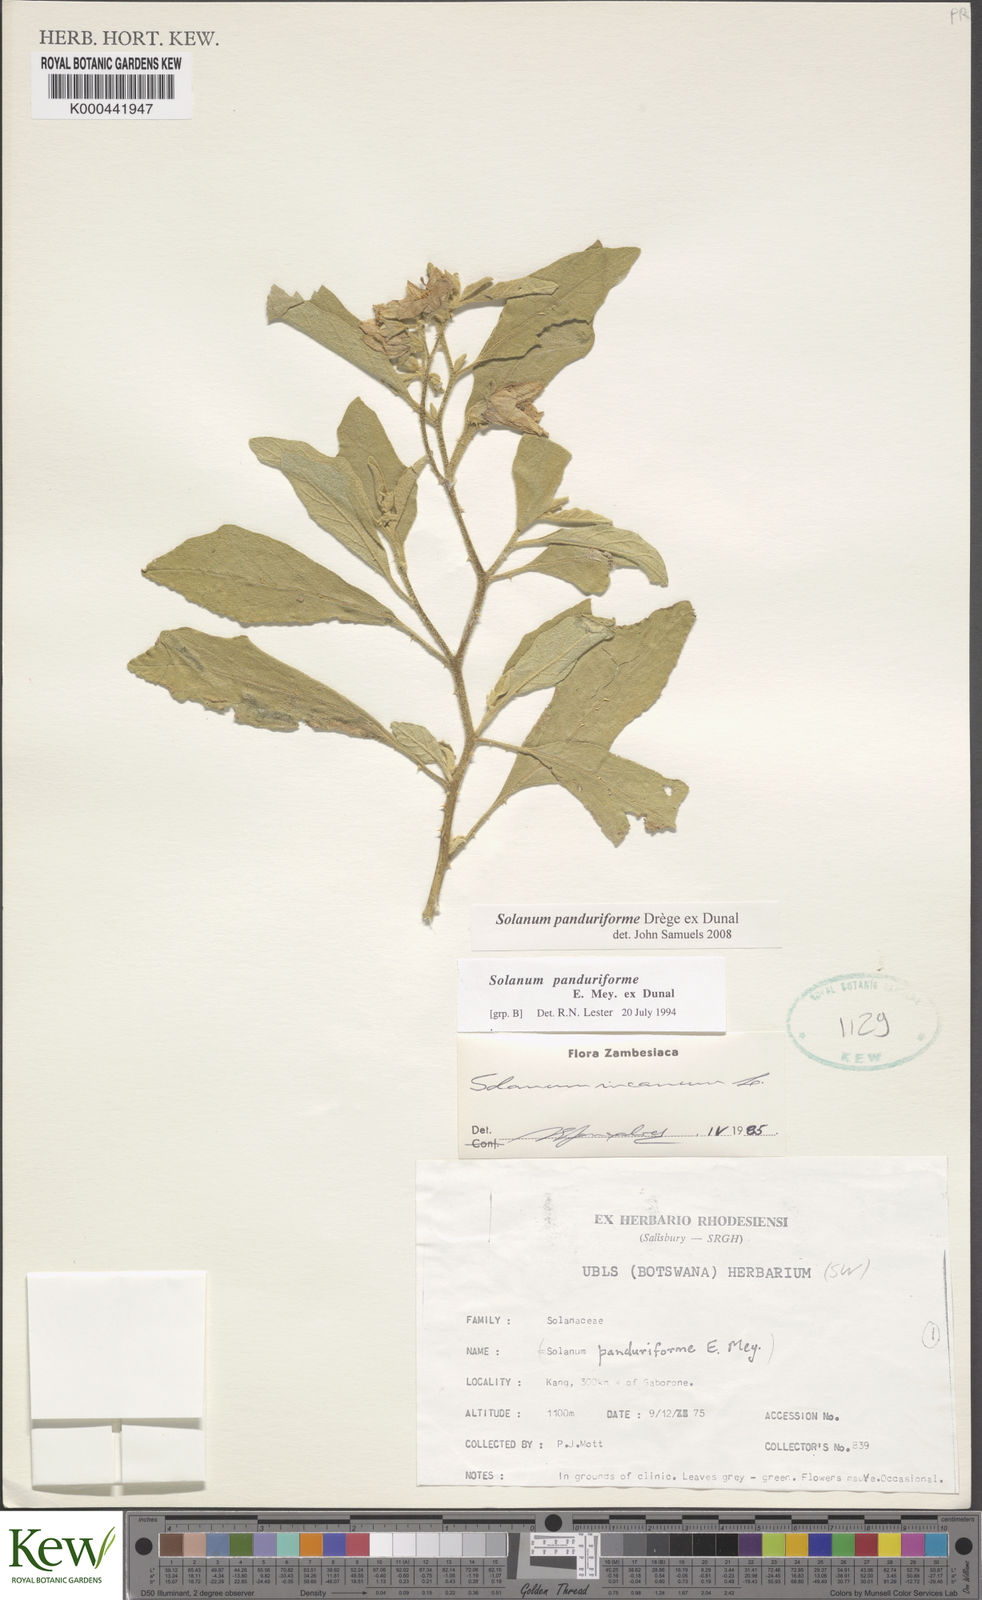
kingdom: Plantae
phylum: Tracheophyta
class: Magnoliopsida
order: Solanales
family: Solanaceae
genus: Solanum
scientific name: Solanum campylacanthum
